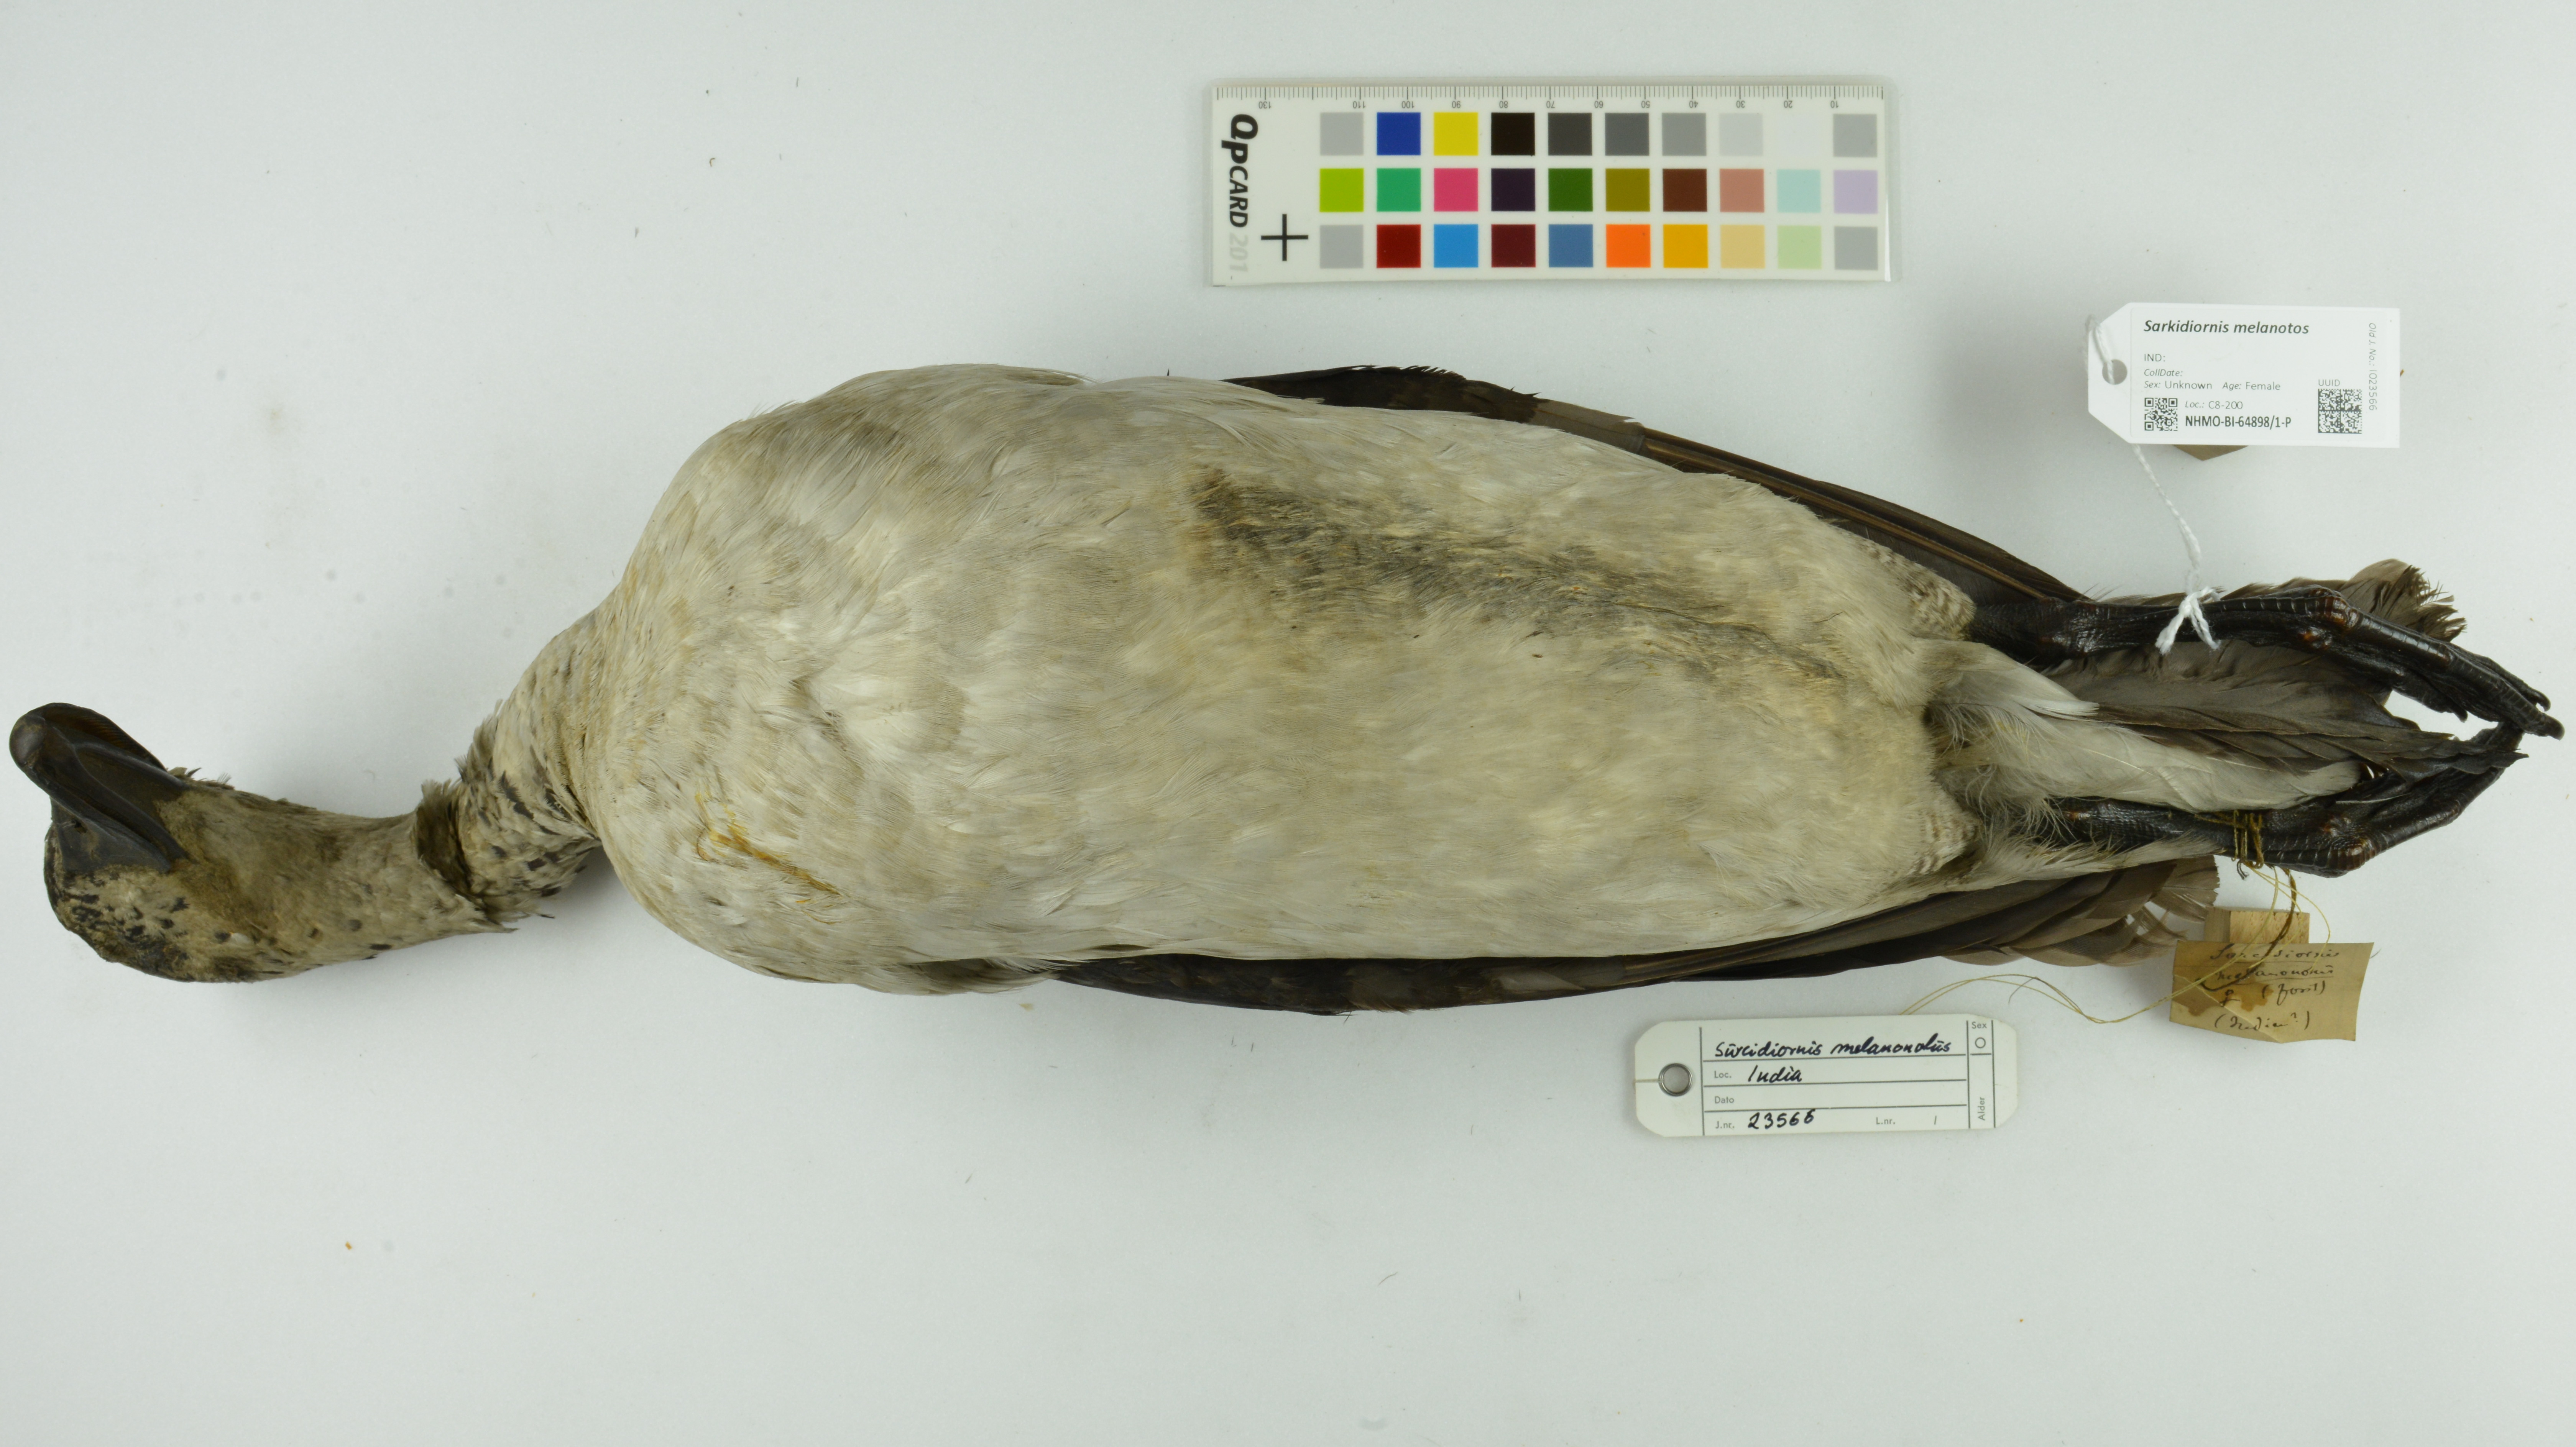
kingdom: Animalia
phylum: Chordata
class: Aves
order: Anseriformes
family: Anatidae
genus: Sarkidiornis
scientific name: Sarkidiornis melanotos
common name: Comb duck
